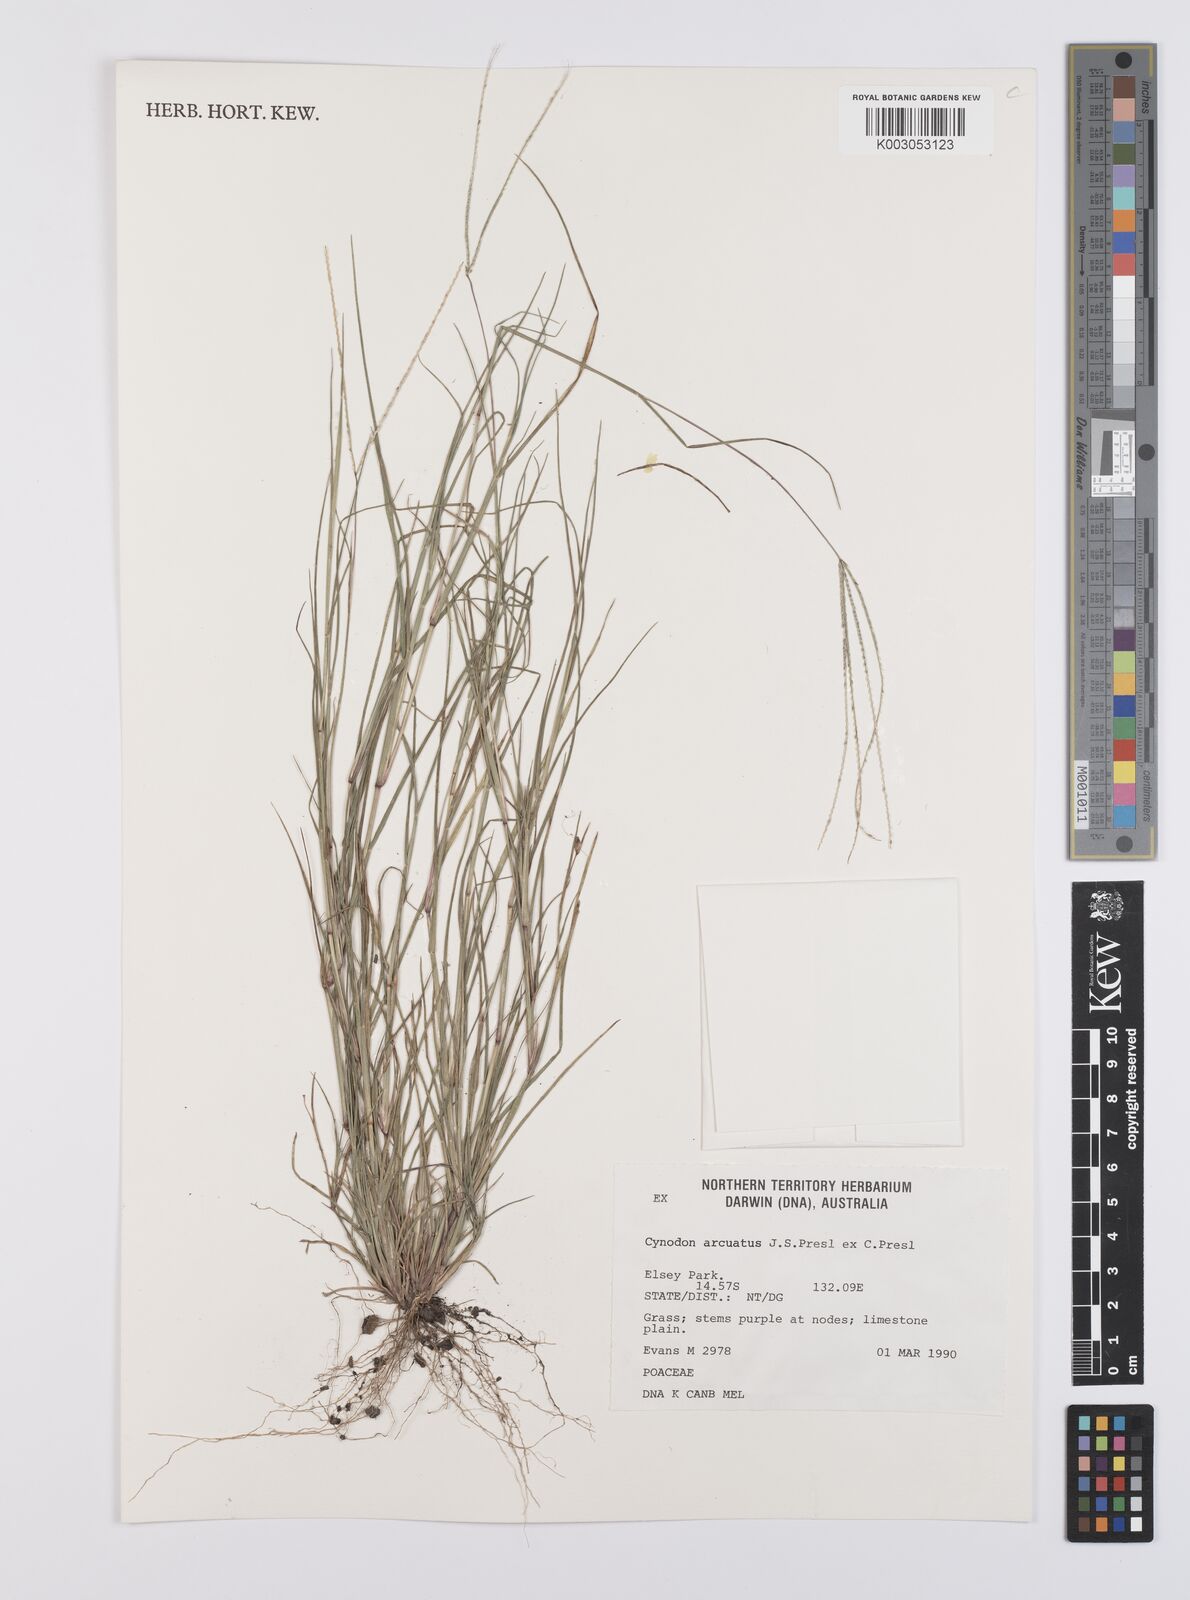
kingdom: Plantae
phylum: Tracheophyta
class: Liliopsida
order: Poales
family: Poaceae
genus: Cynodon
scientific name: Cynodon radiatus
